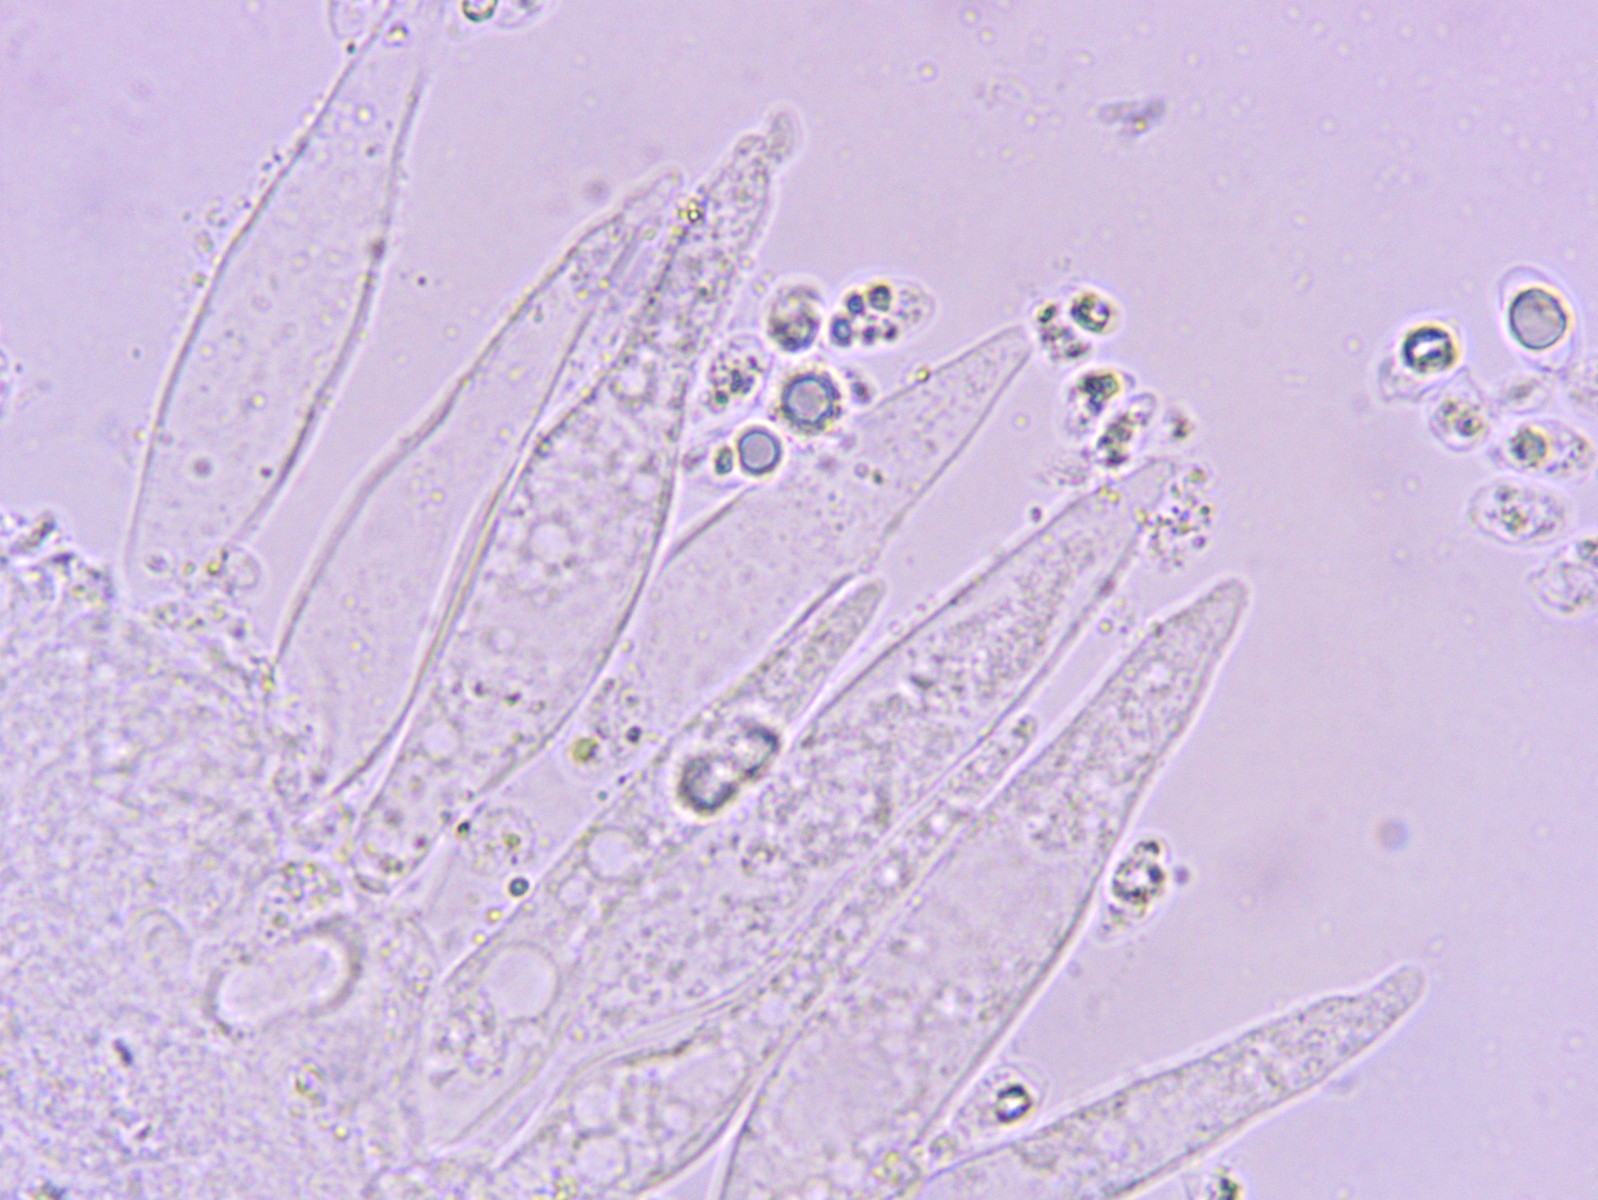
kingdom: Fungi
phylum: Basidiomycota
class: Agaricomycetes
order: Agaricales
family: Mycenaceae
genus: Mycena
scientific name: Mycena galopus
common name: hvidmælket huesvamp
